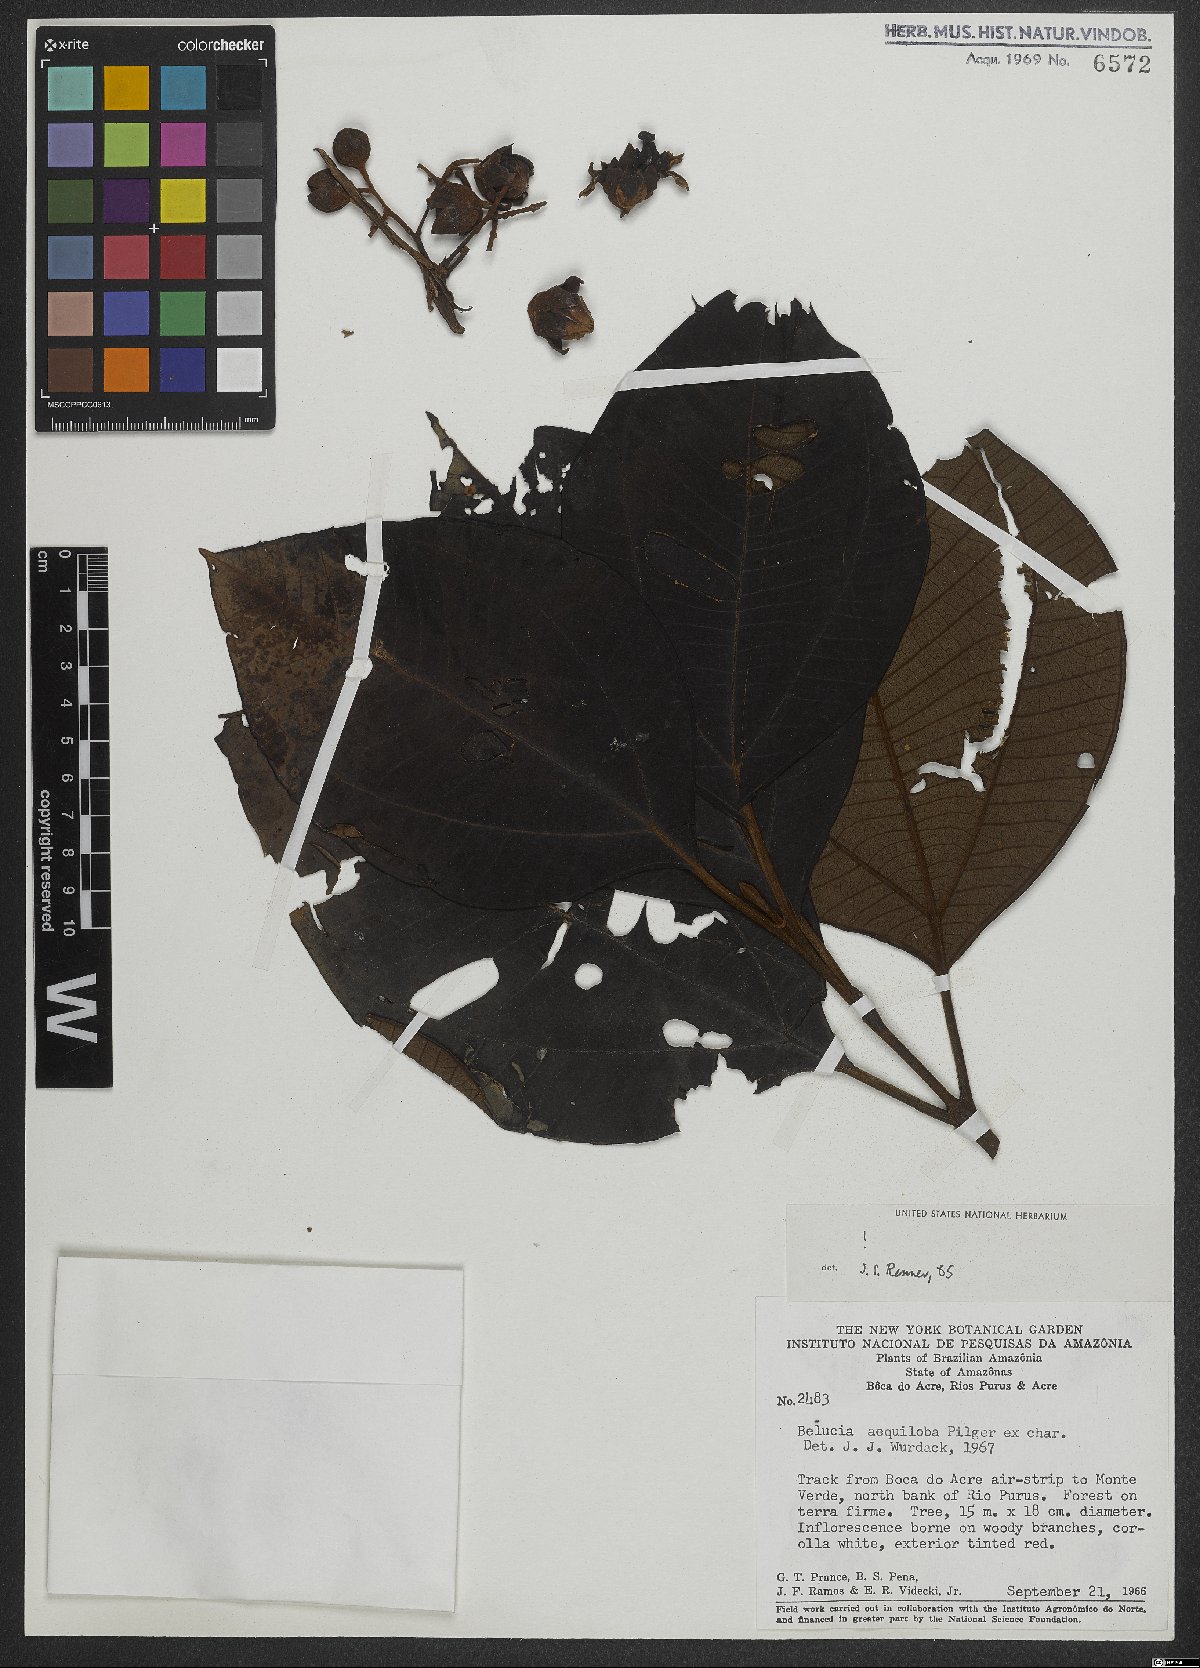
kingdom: Plantae
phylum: Tracheophyta
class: Magnoliopsida
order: Myrtales
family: Melastomataceae
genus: Bellucia
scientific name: Bellucia aequiloba
